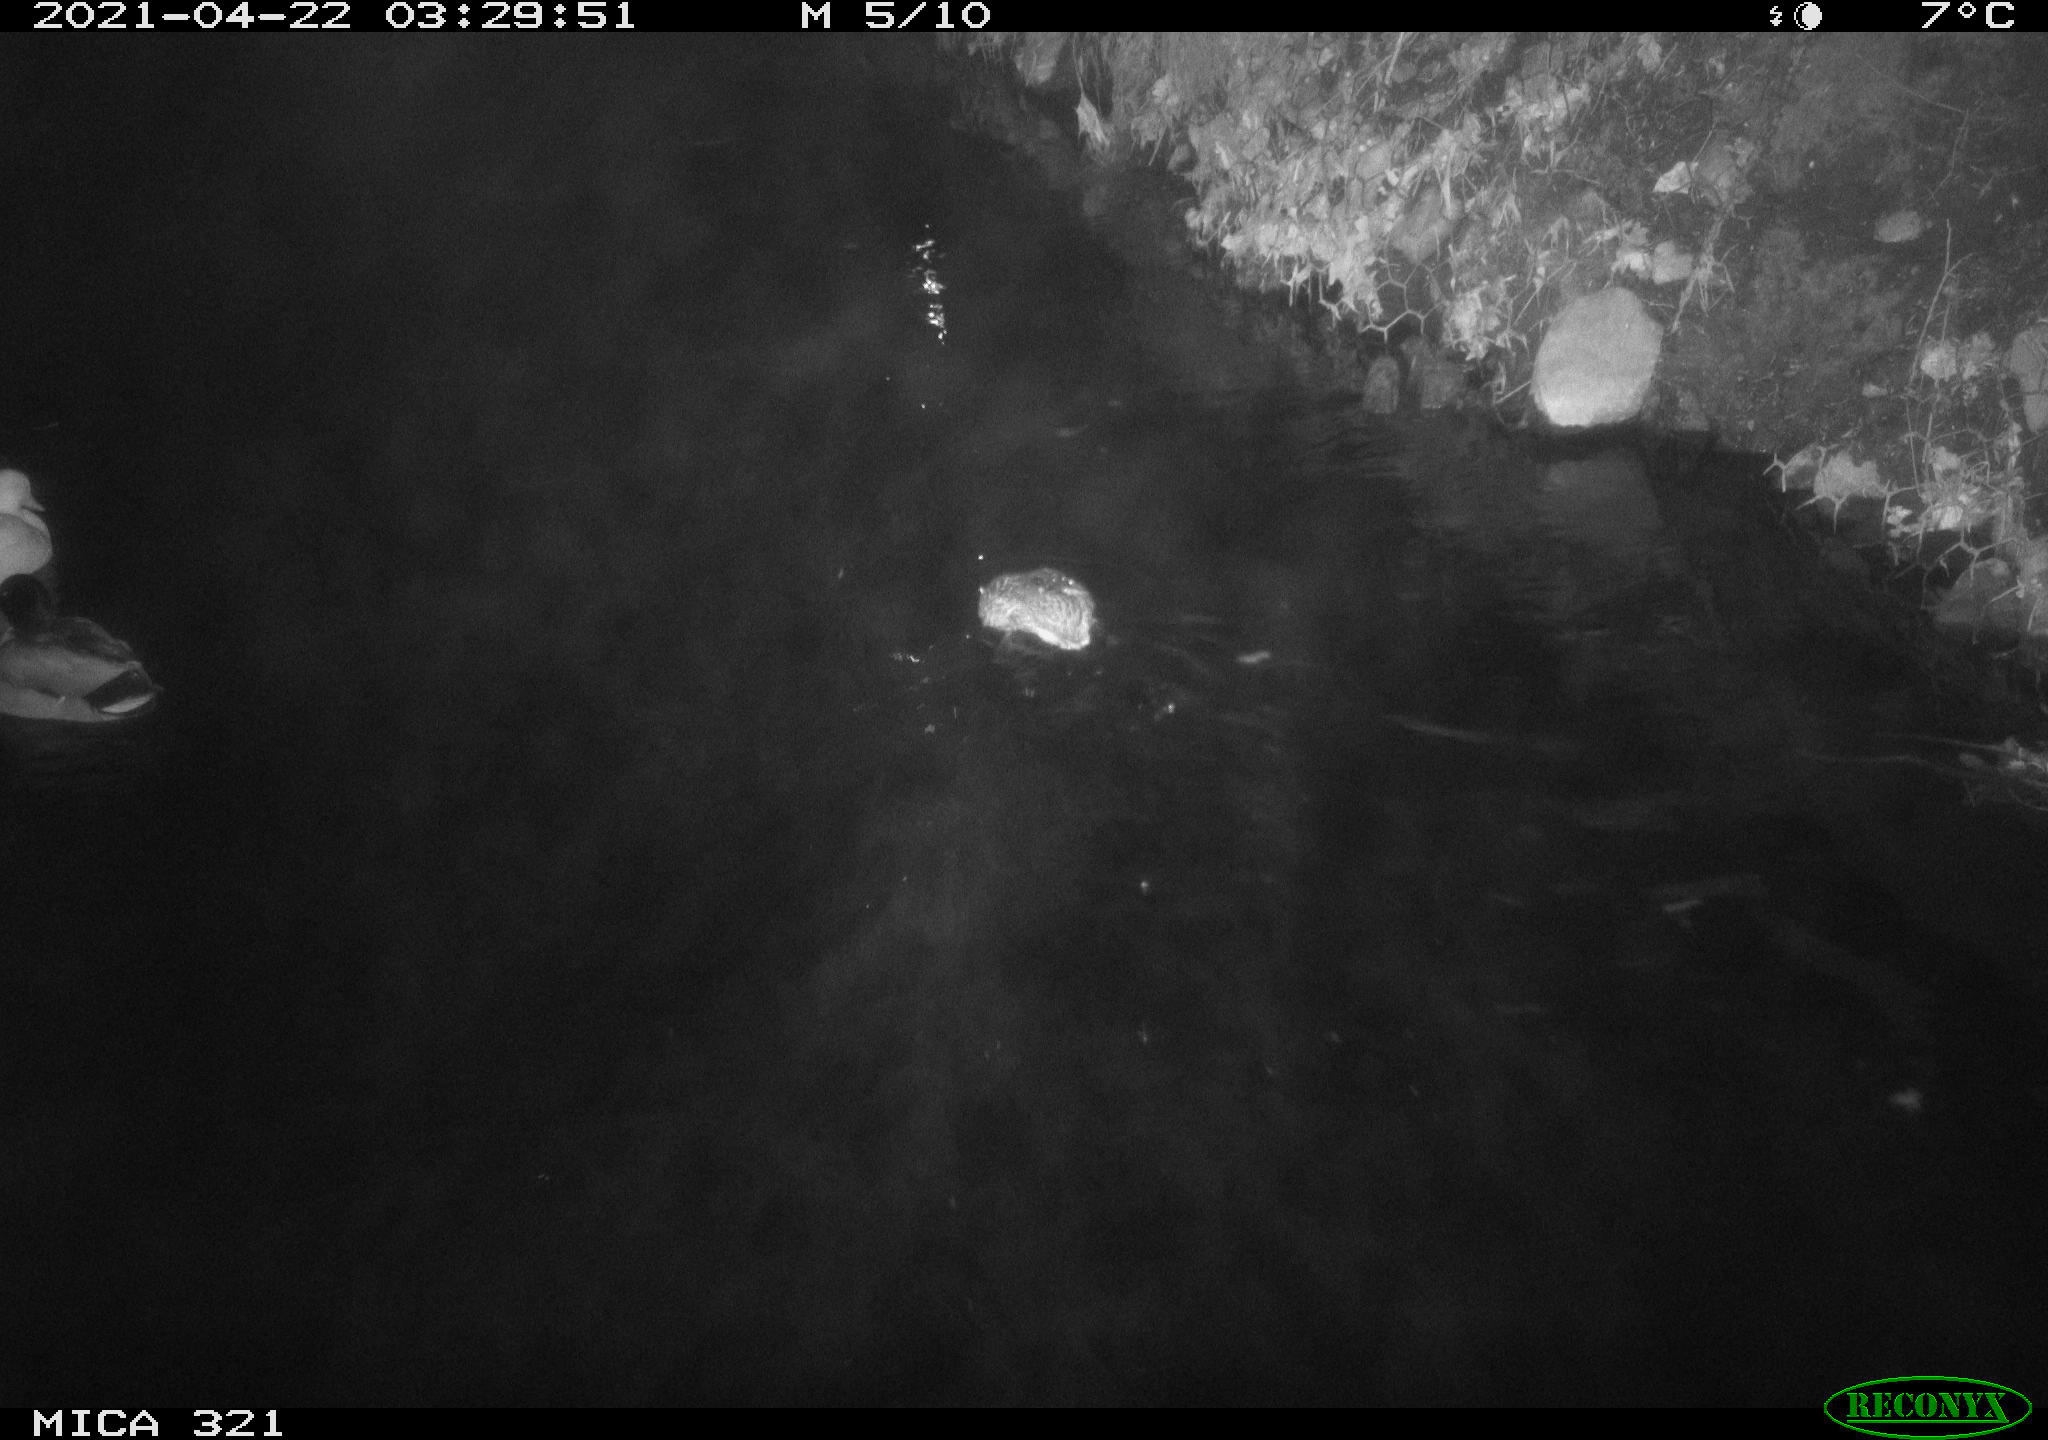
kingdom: Animalia
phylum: Chordata
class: Aves
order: Anseriformes
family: Anatidae
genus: Anas
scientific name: Anas
